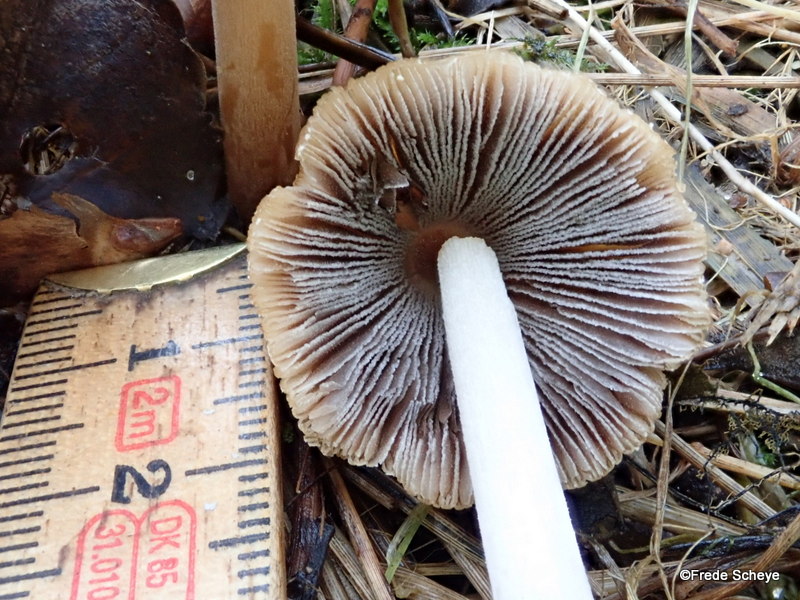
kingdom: Fungi
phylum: Basidiomycota
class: Agaricomycetes
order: Agaricales
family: Psathyrellaceae
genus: Coprinellus
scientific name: Coprinellus micaceus
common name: glimmer-blækhat
